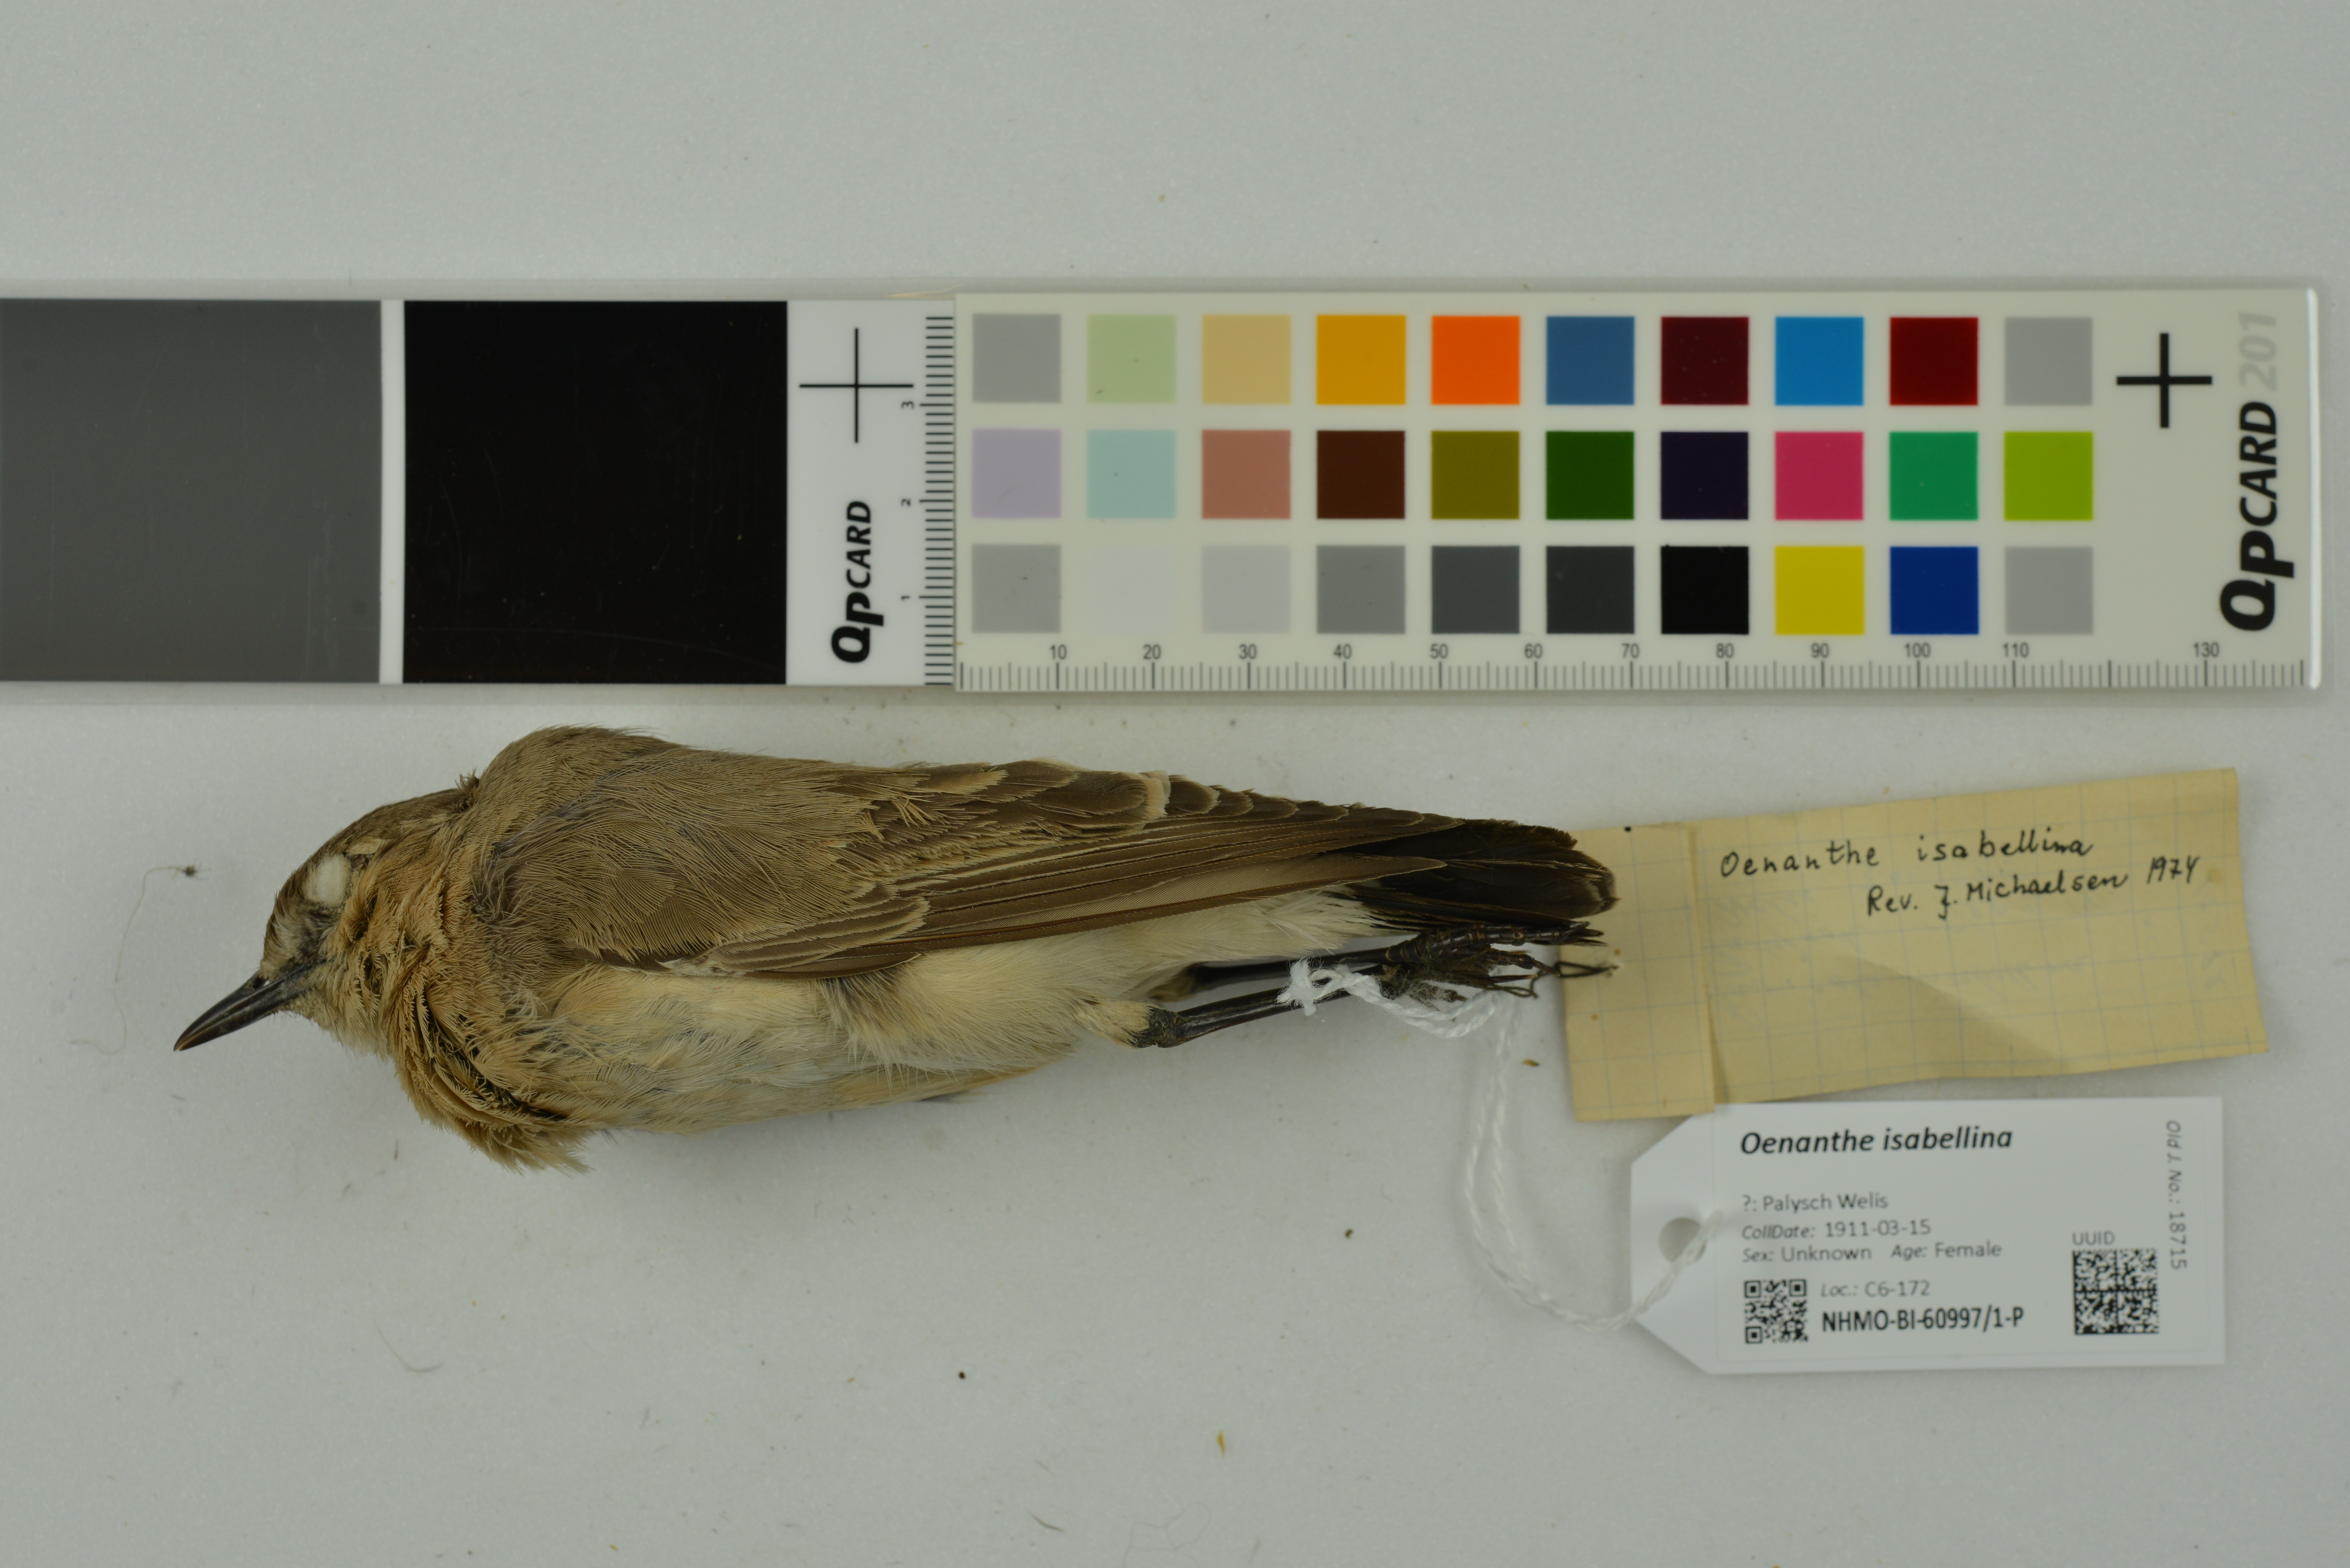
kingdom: Animalia
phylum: Chordata
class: Aves
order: Passeriformes
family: Muscicapidae
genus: Oenanthe
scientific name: Oenanthe isabellina
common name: Isabelline wheatear
